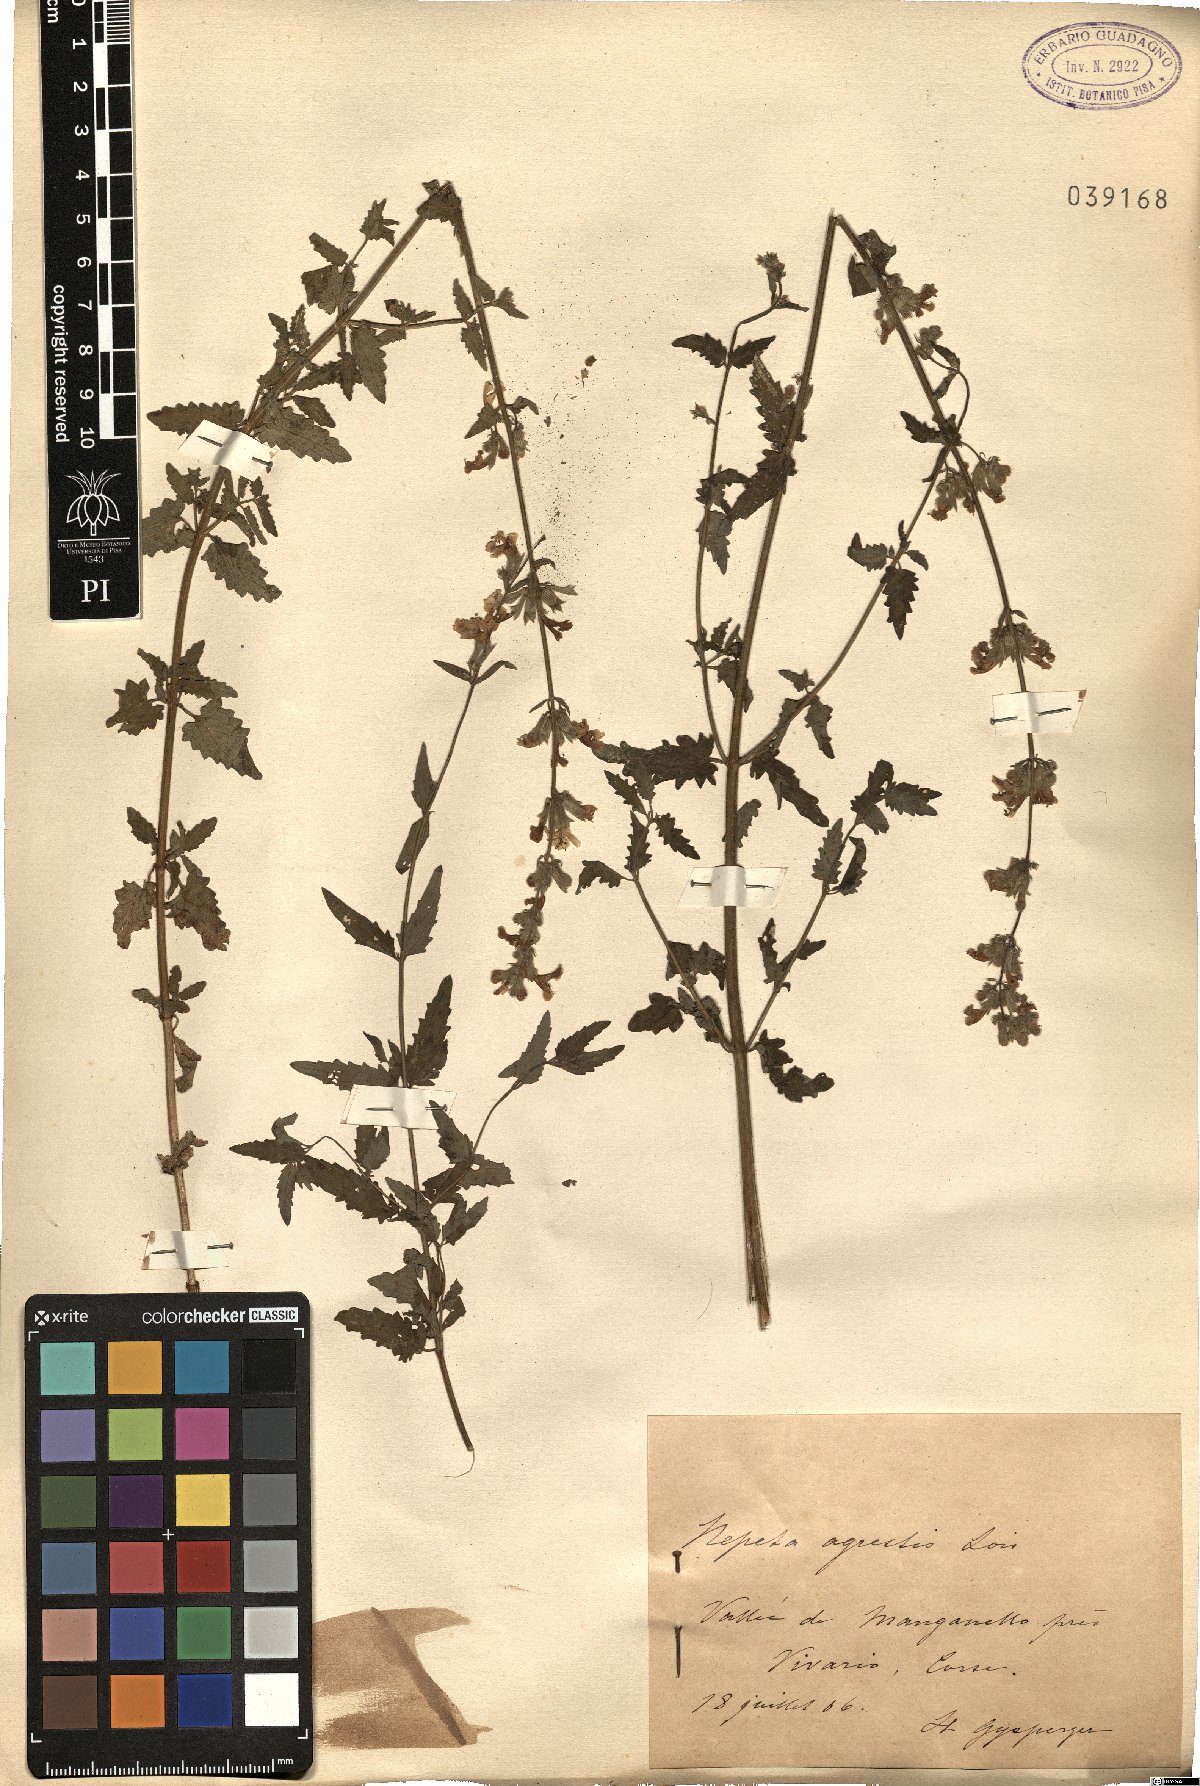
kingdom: Plantae
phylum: Tracheophyta
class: Magnoliopsida
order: Lamiales
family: Lamiaceae
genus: Nepeta
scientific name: Nepeta agrestis
